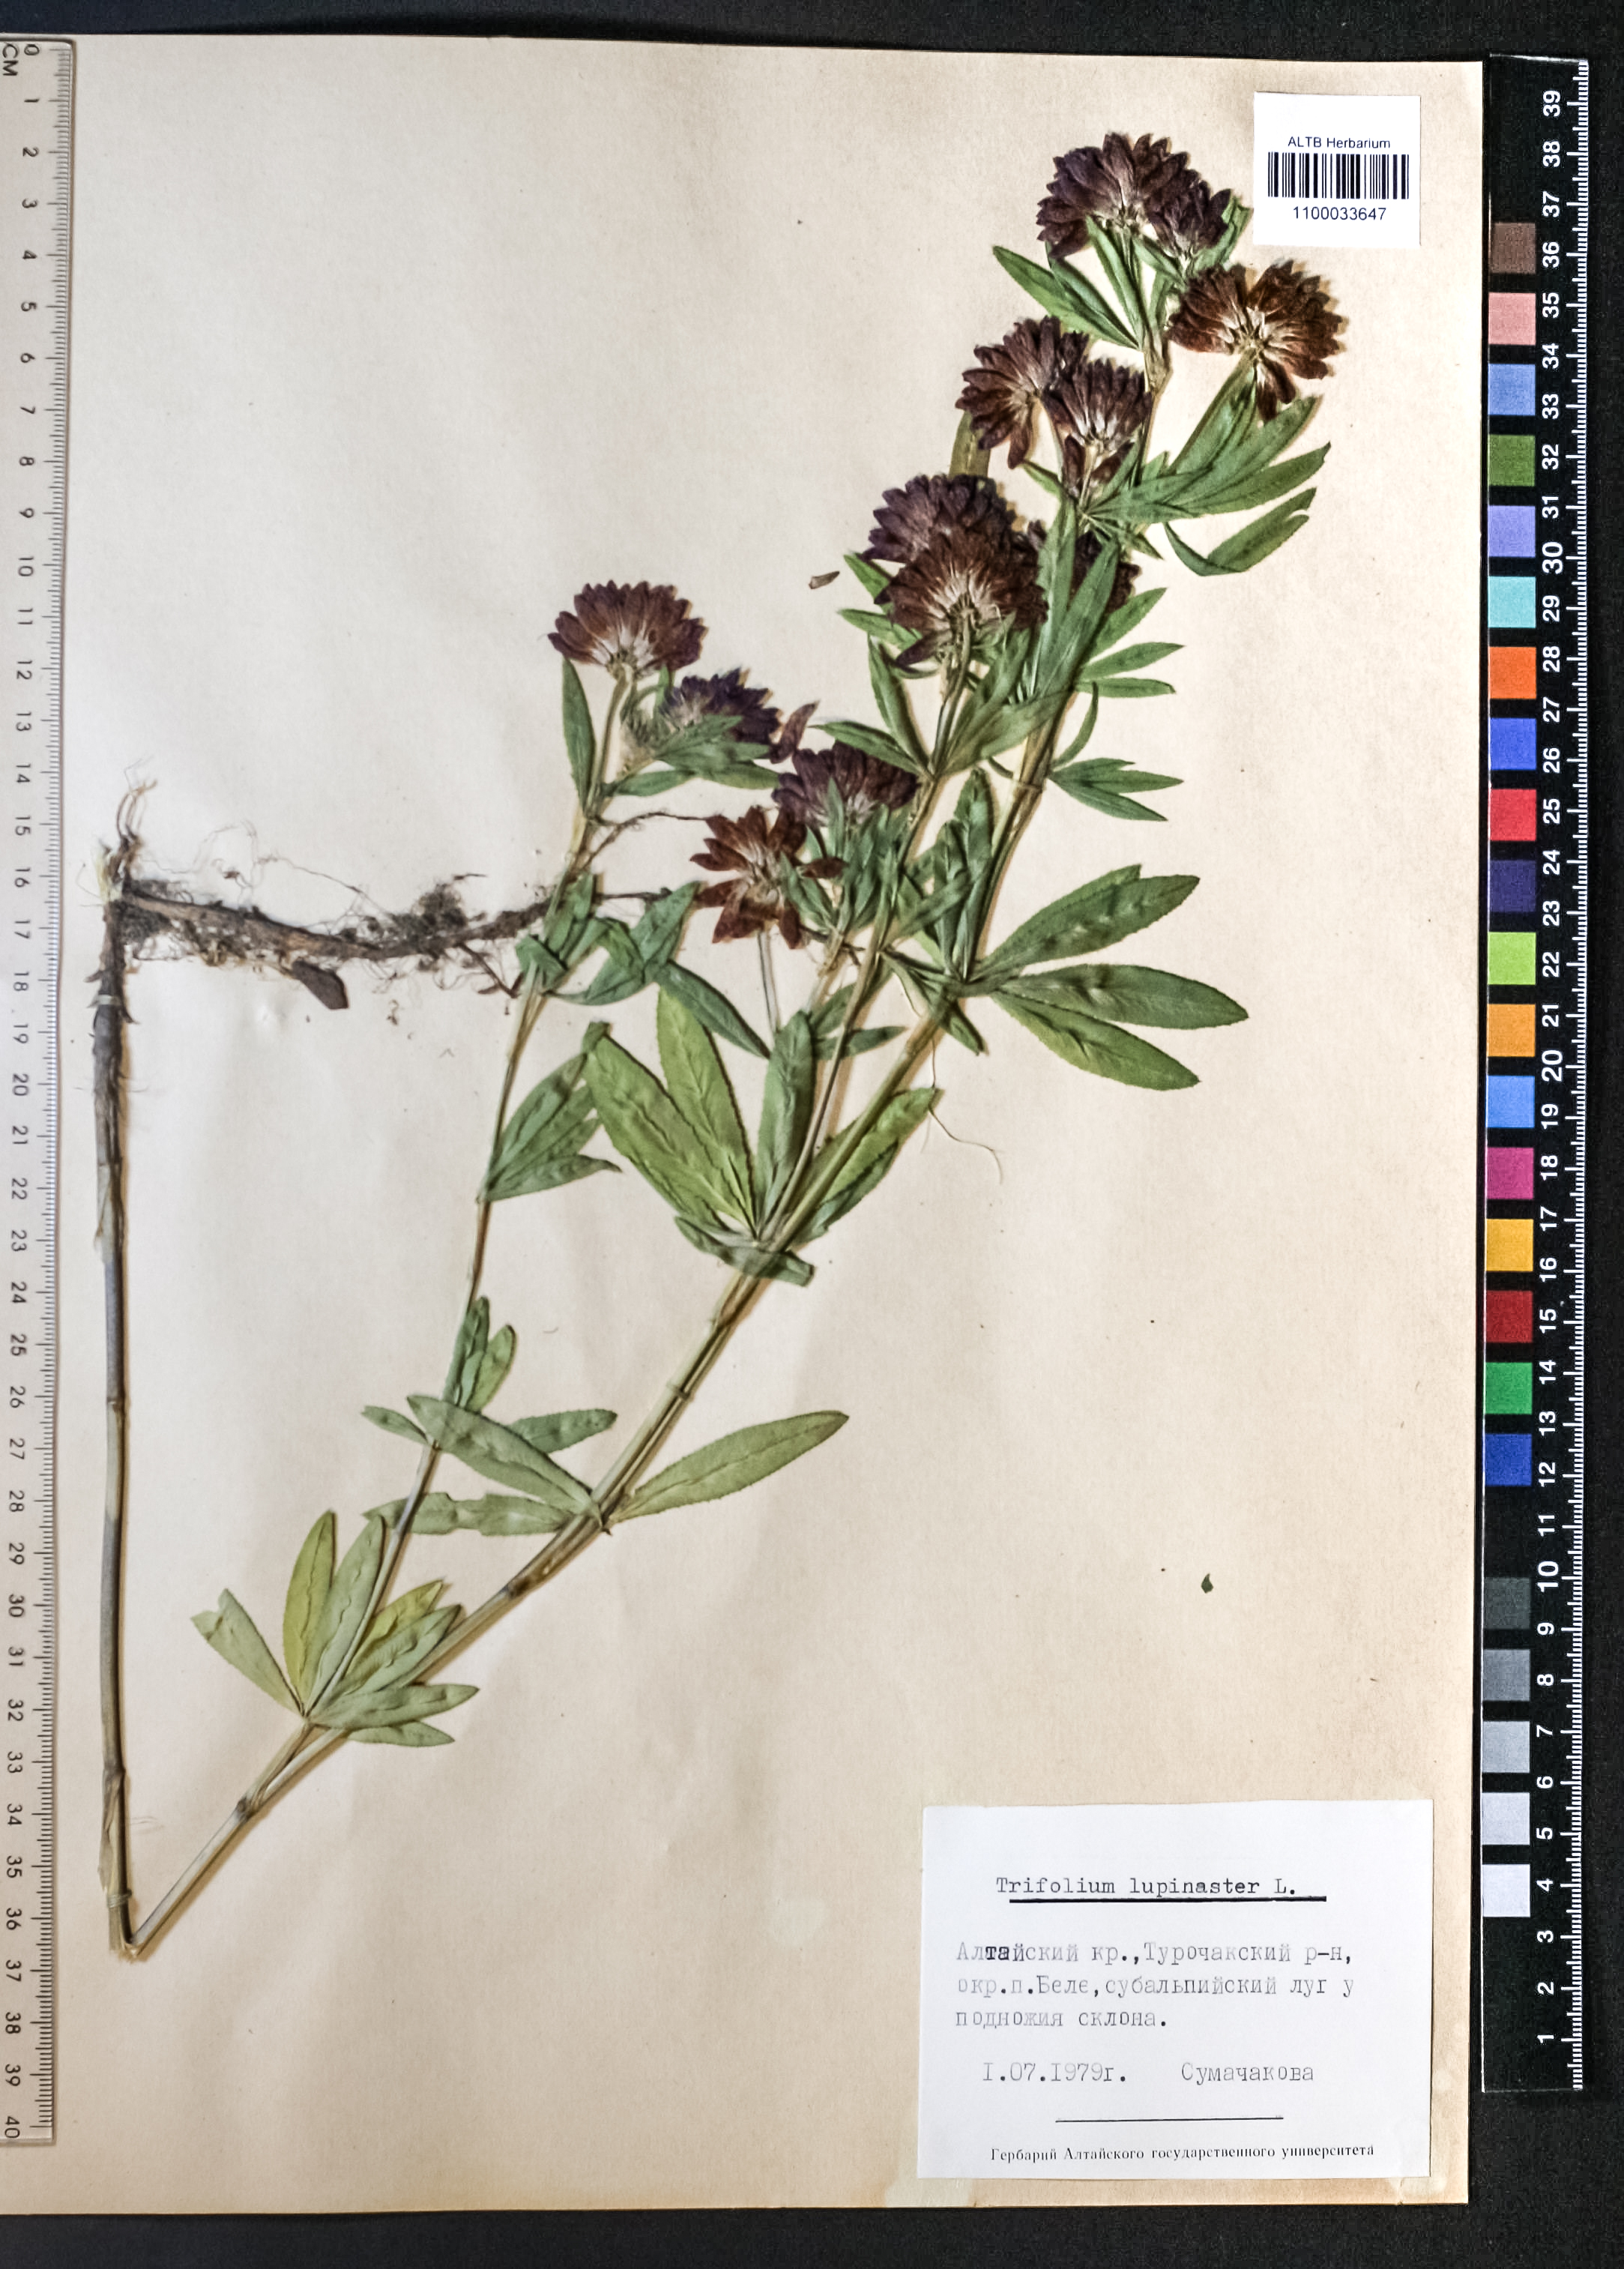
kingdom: Plantae
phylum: Tracheophyta
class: Magnoliopsida
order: Fabales
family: Fabaceae
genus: Trifolium
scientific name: Trifolium lupinaster
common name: Lupine clover
